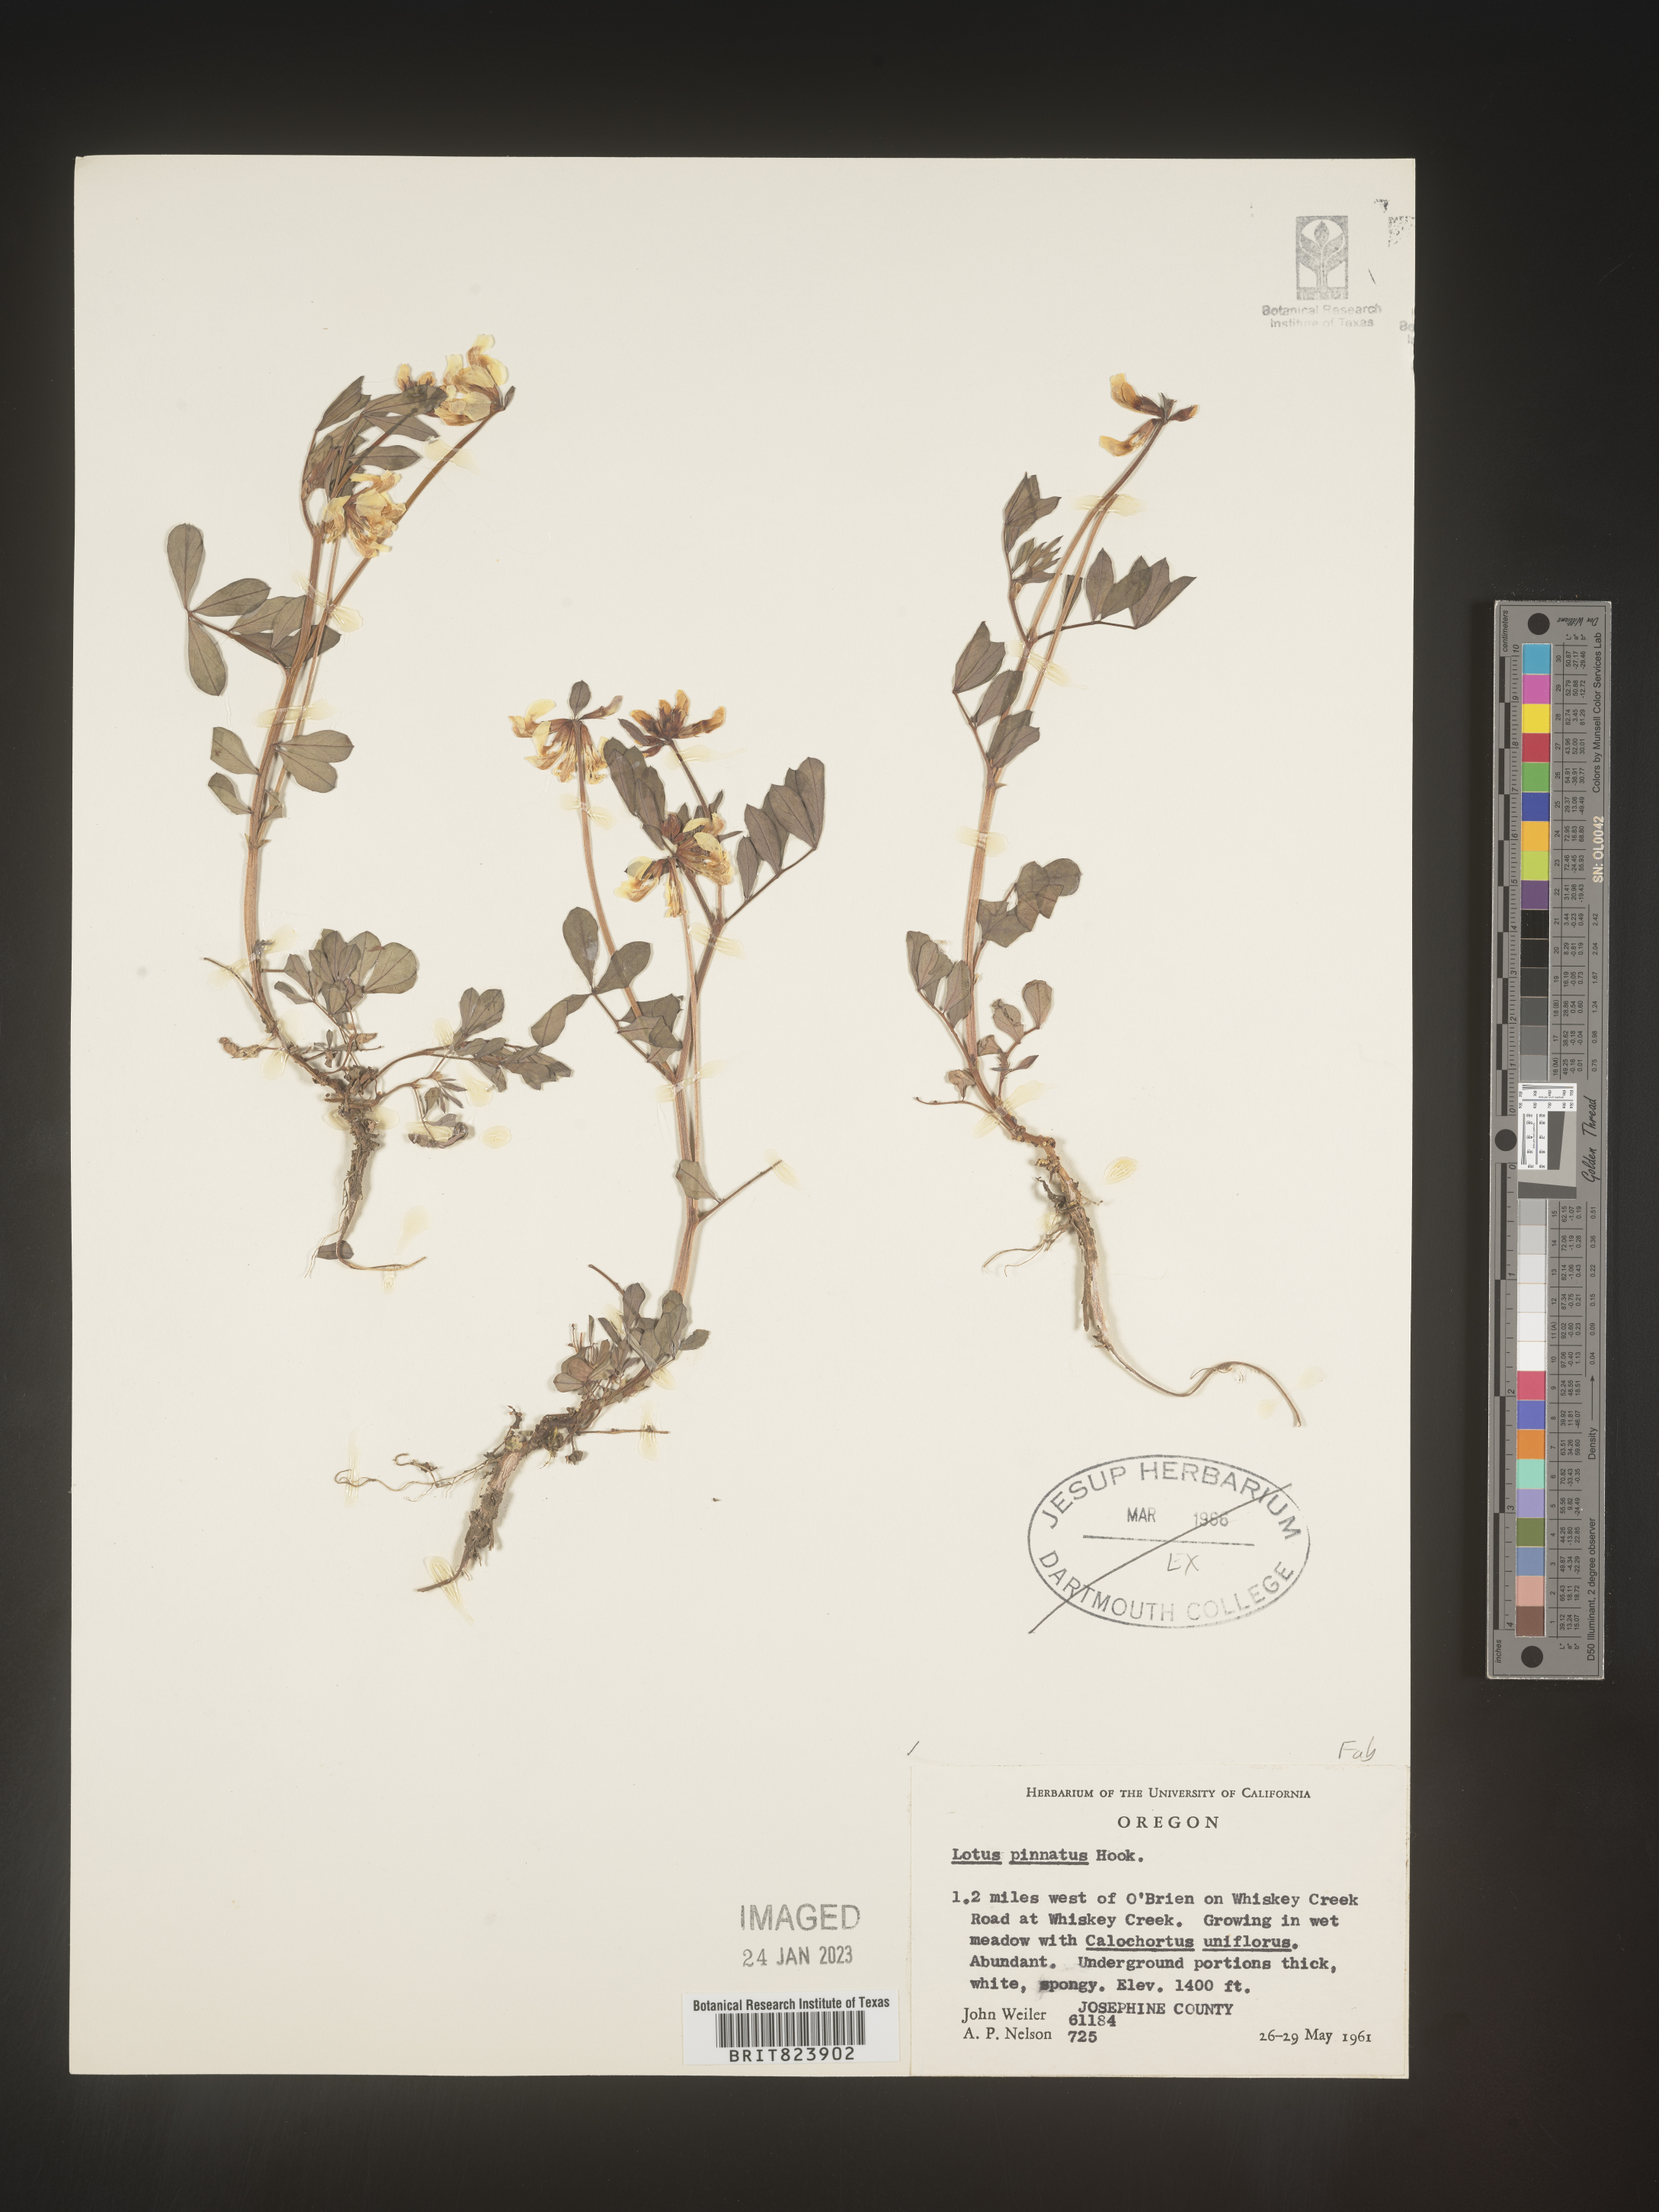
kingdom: Plantae
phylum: Tracheophyta
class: Magnoliopsida
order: Fabales
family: Fabaceae
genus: Lotus
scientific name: Lotus
